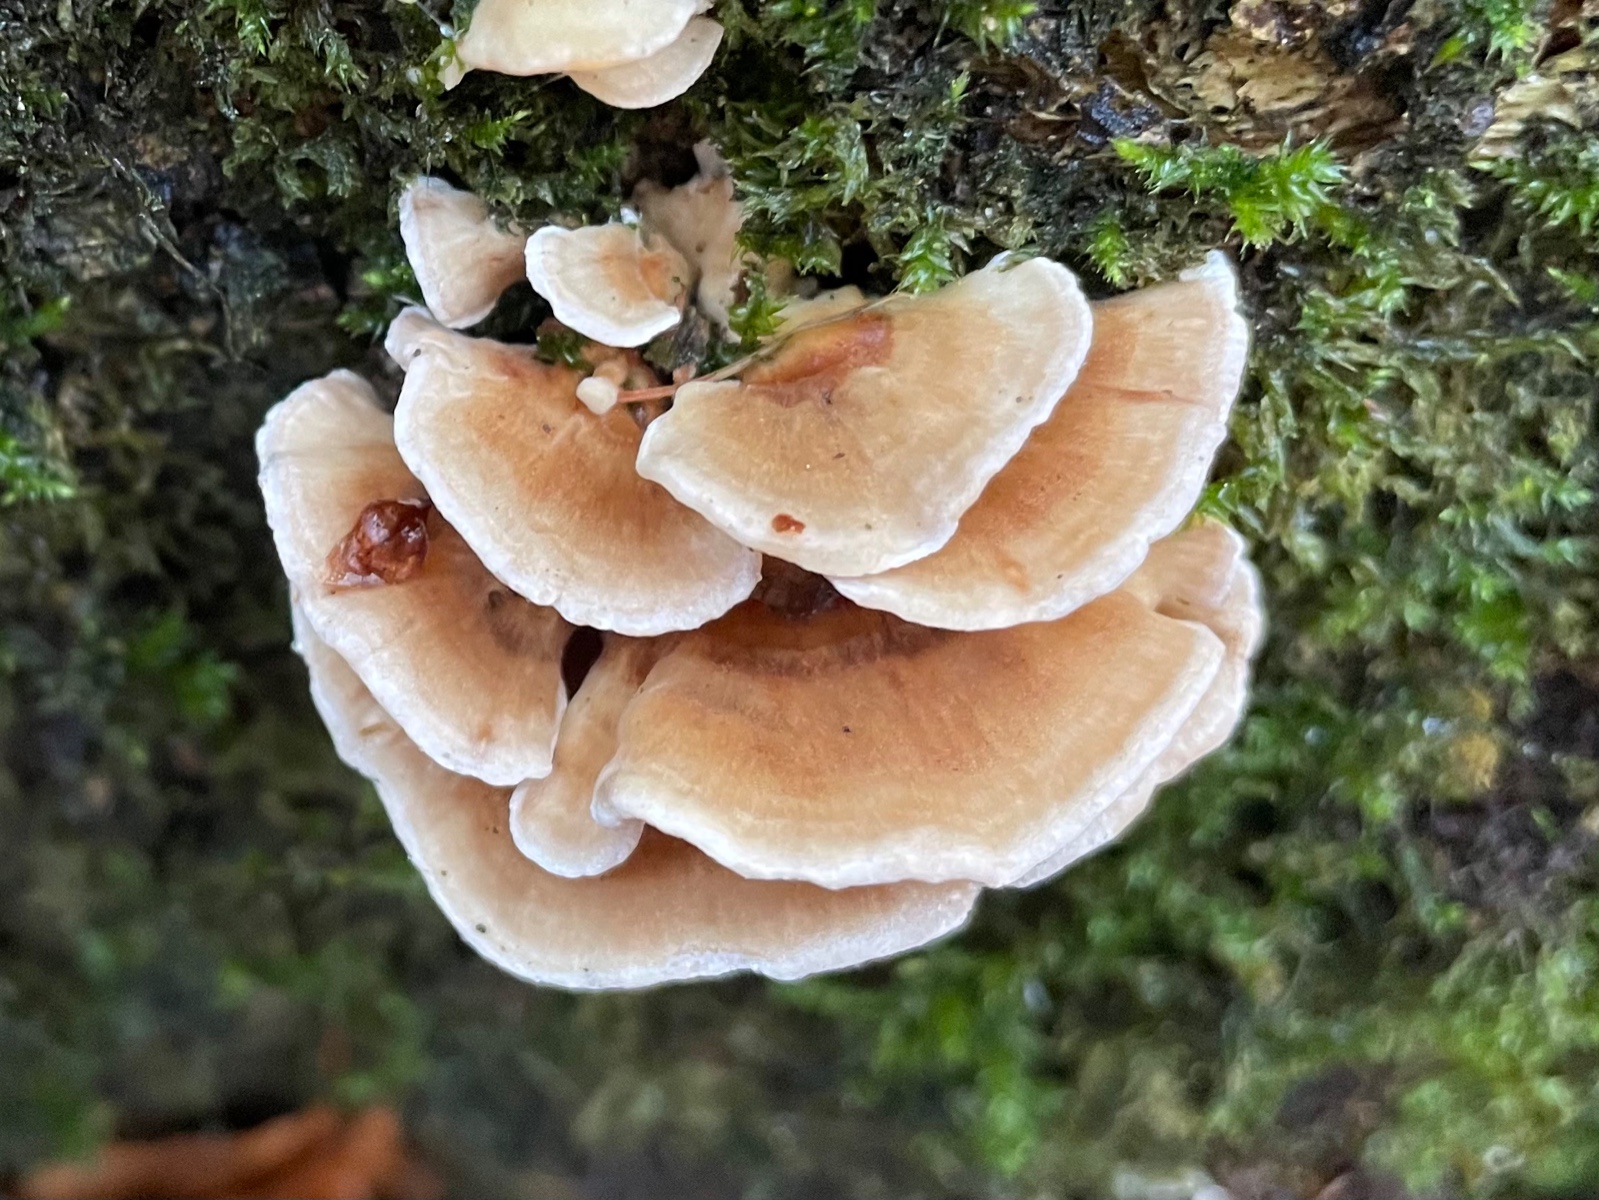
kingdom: Fungi
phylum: Basidiomycota
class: Agaricomycetes
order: Polyporales
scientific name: Polyporales
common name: poresvampordenen
